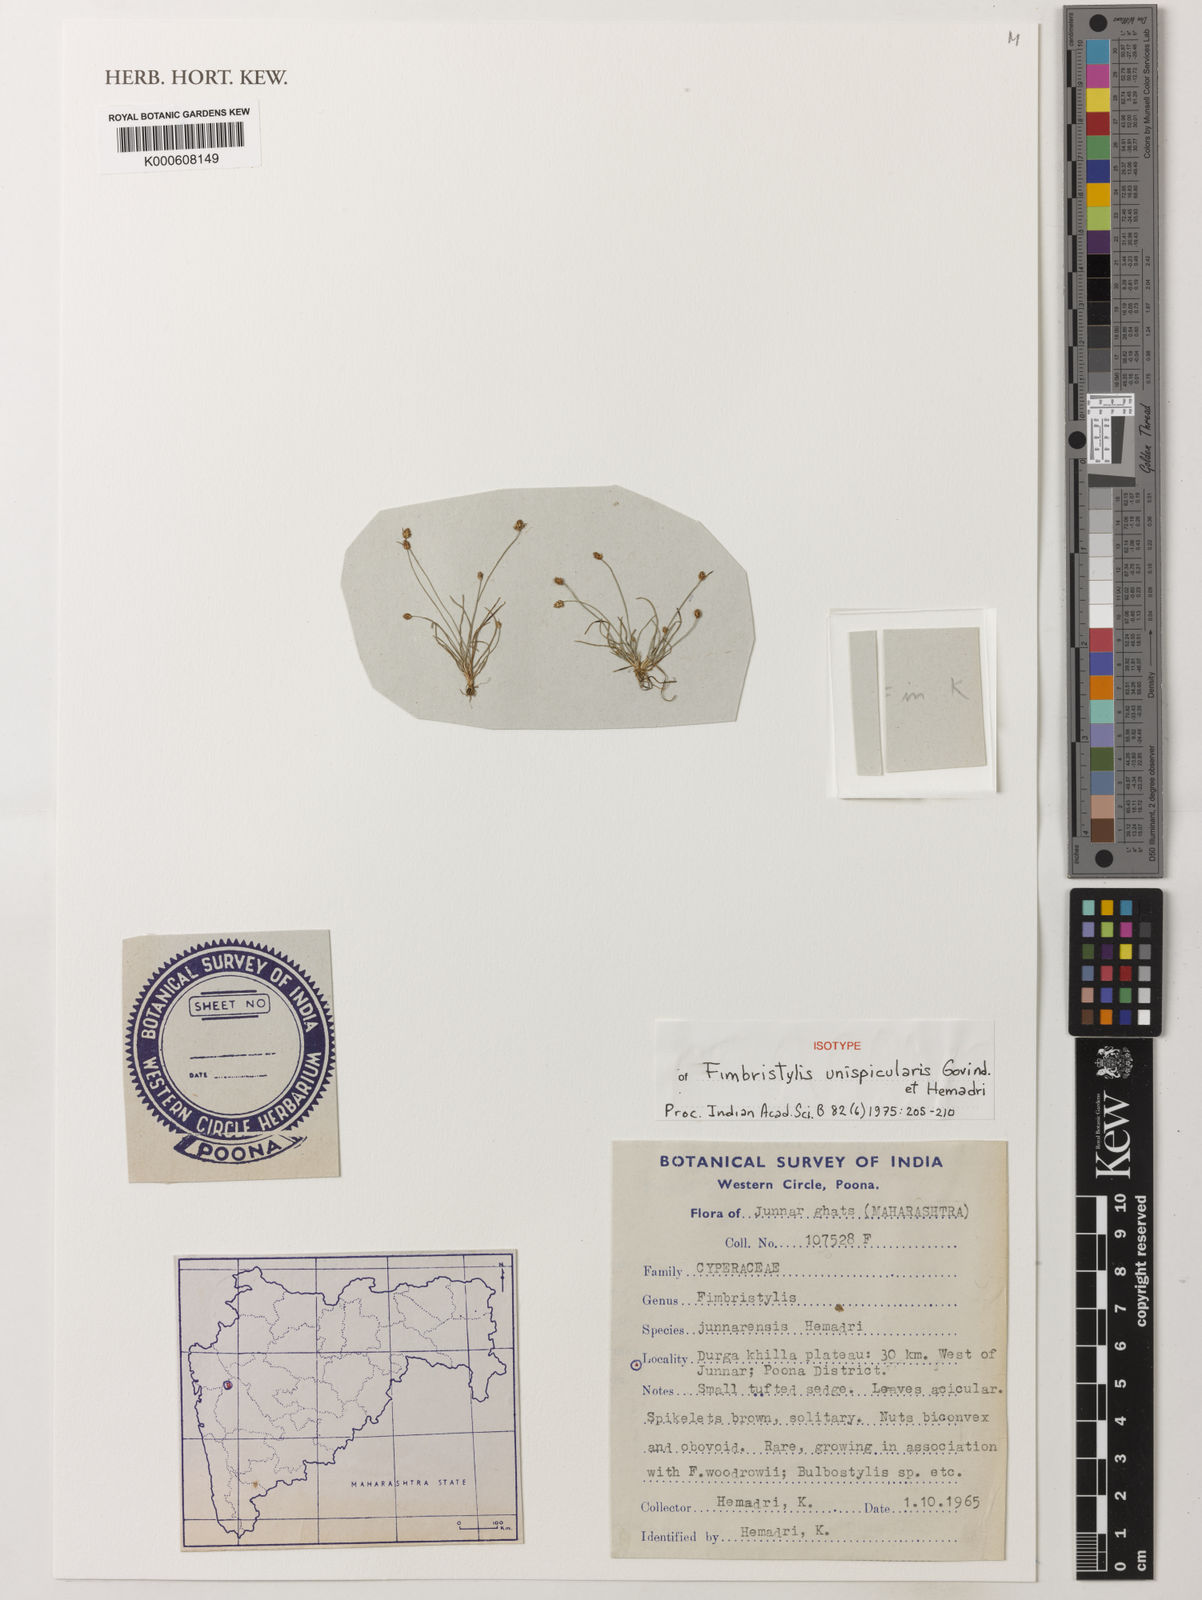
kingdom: Plantae
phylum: Tracheophyta
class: Liliopsida
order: Poales
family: Cyperaceae
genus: Fimbristylis
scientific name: Fimbristylis unispicularis
